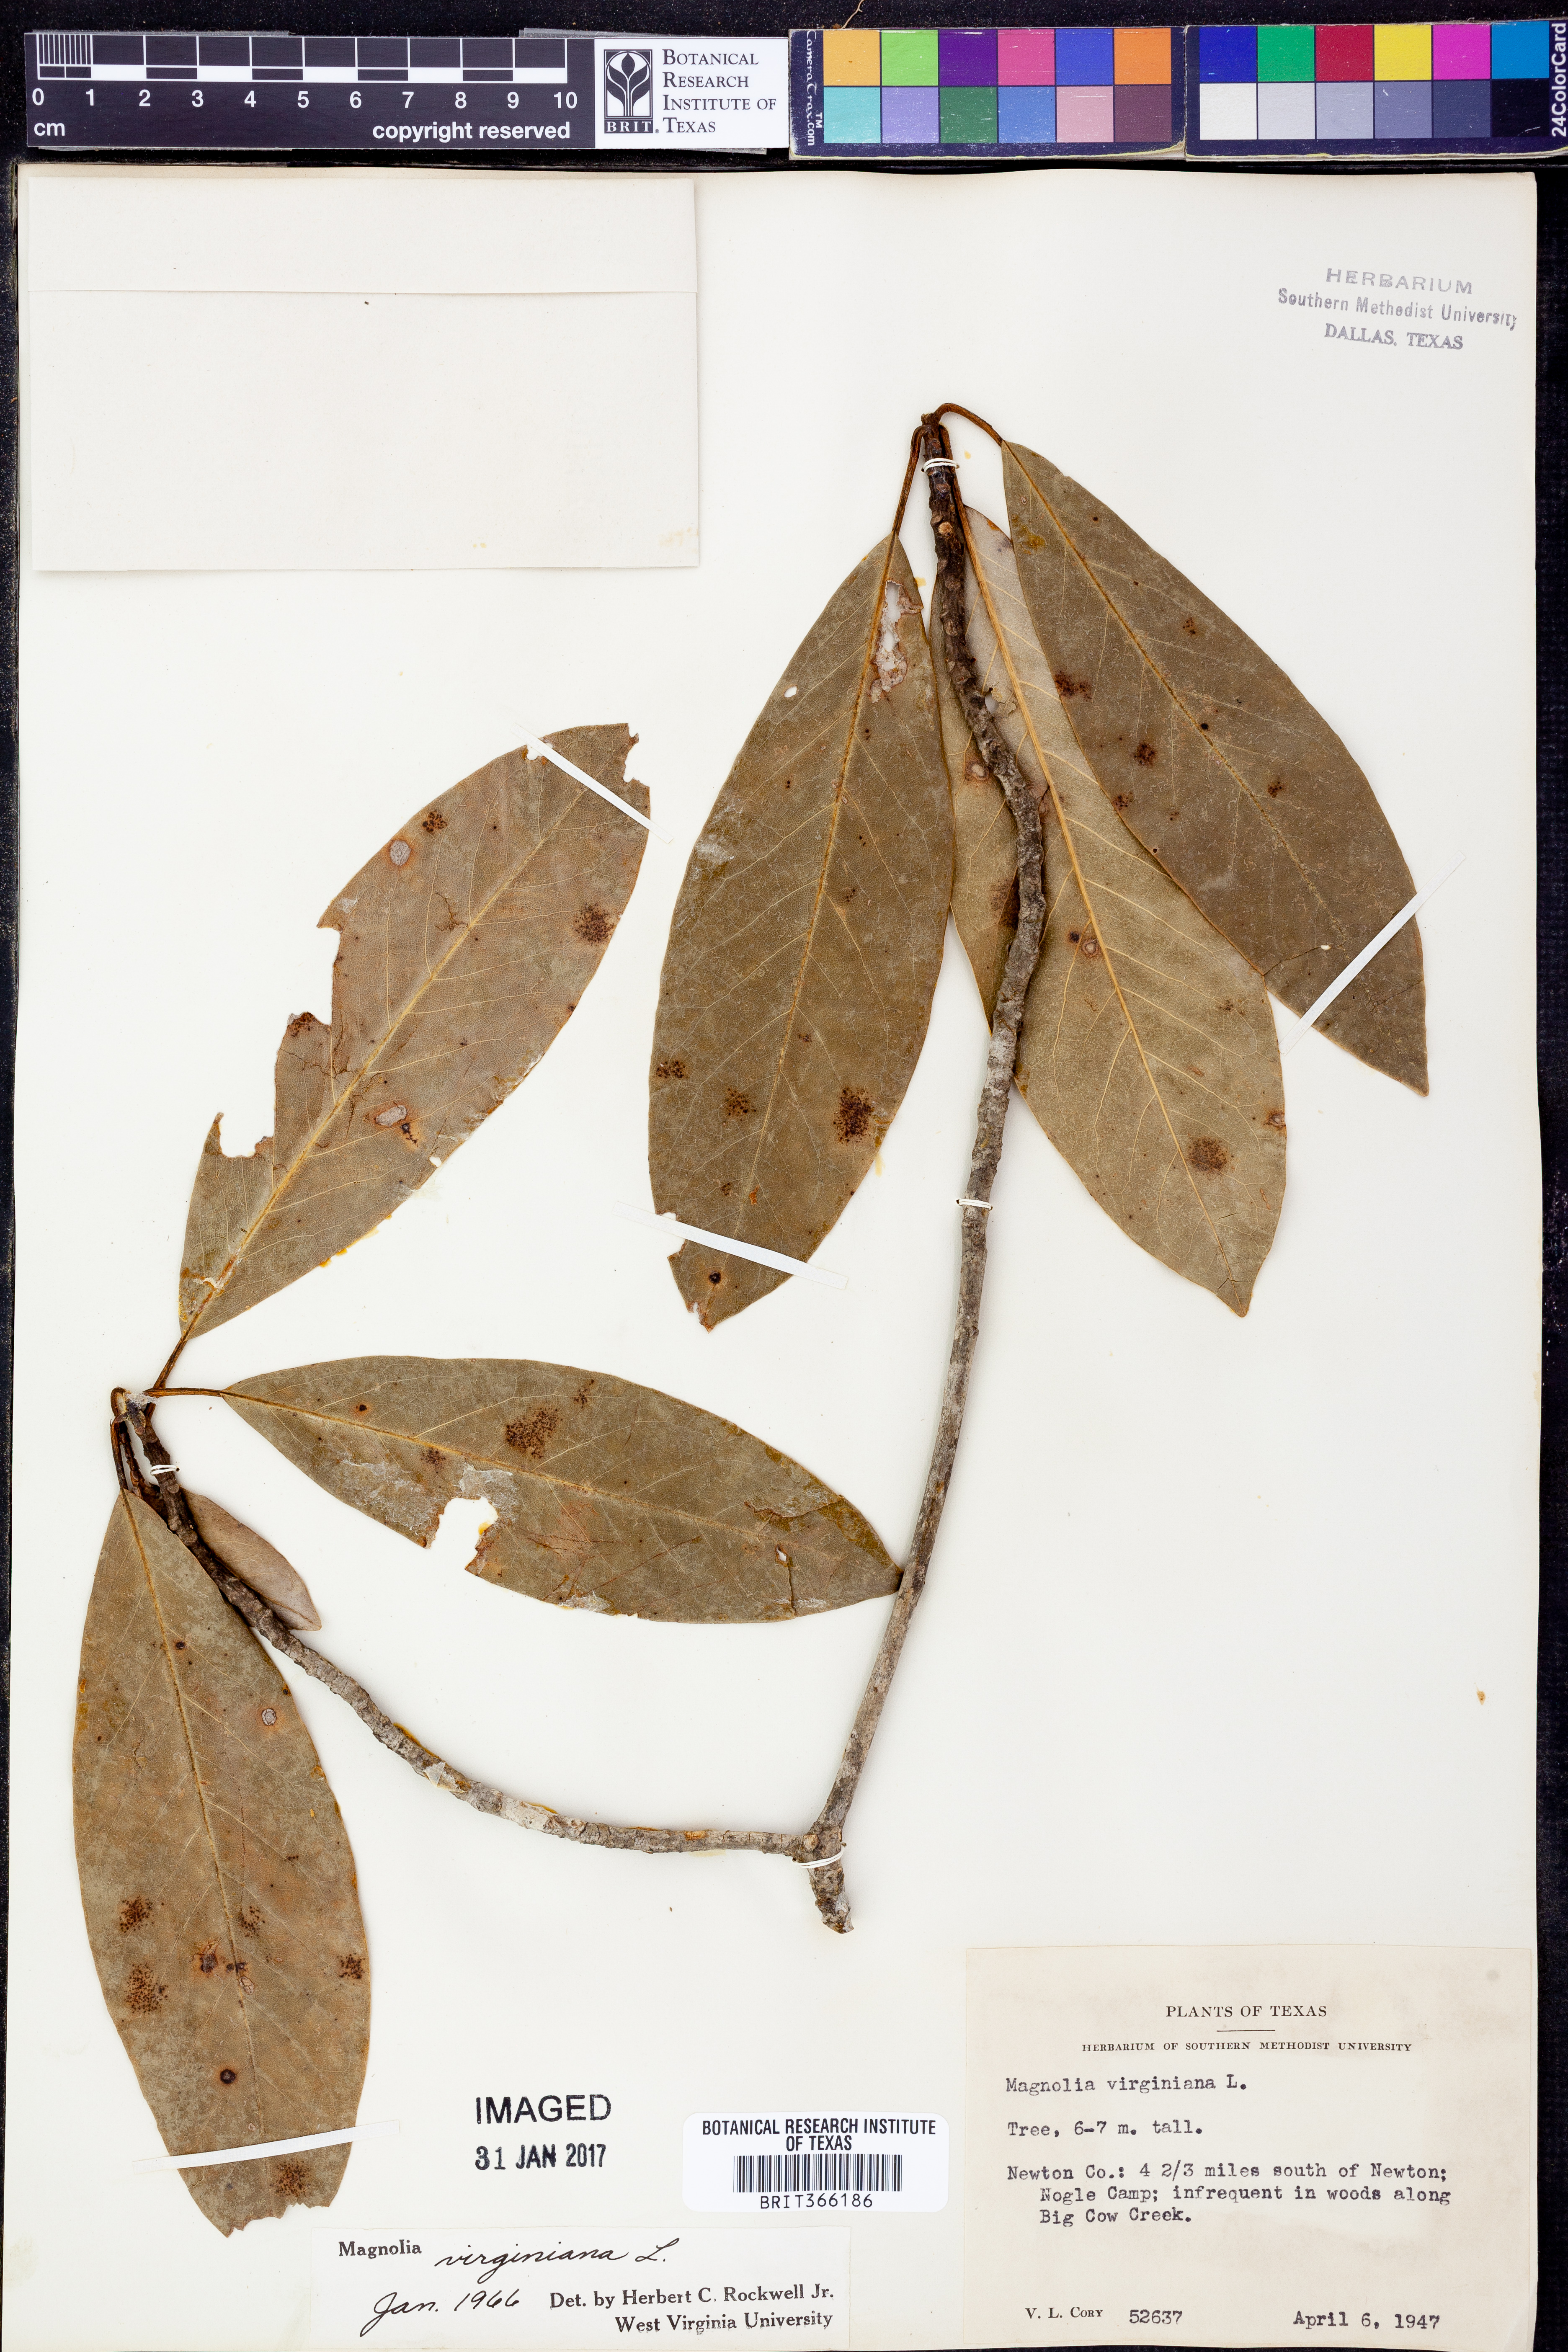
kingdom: Plantae
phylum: Tracheophyta
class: Magnoliopsida
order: Magnoliales
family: Magnoliaceae
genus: Magnolia
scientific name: Magnolia virginiana
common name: Swamp bay
